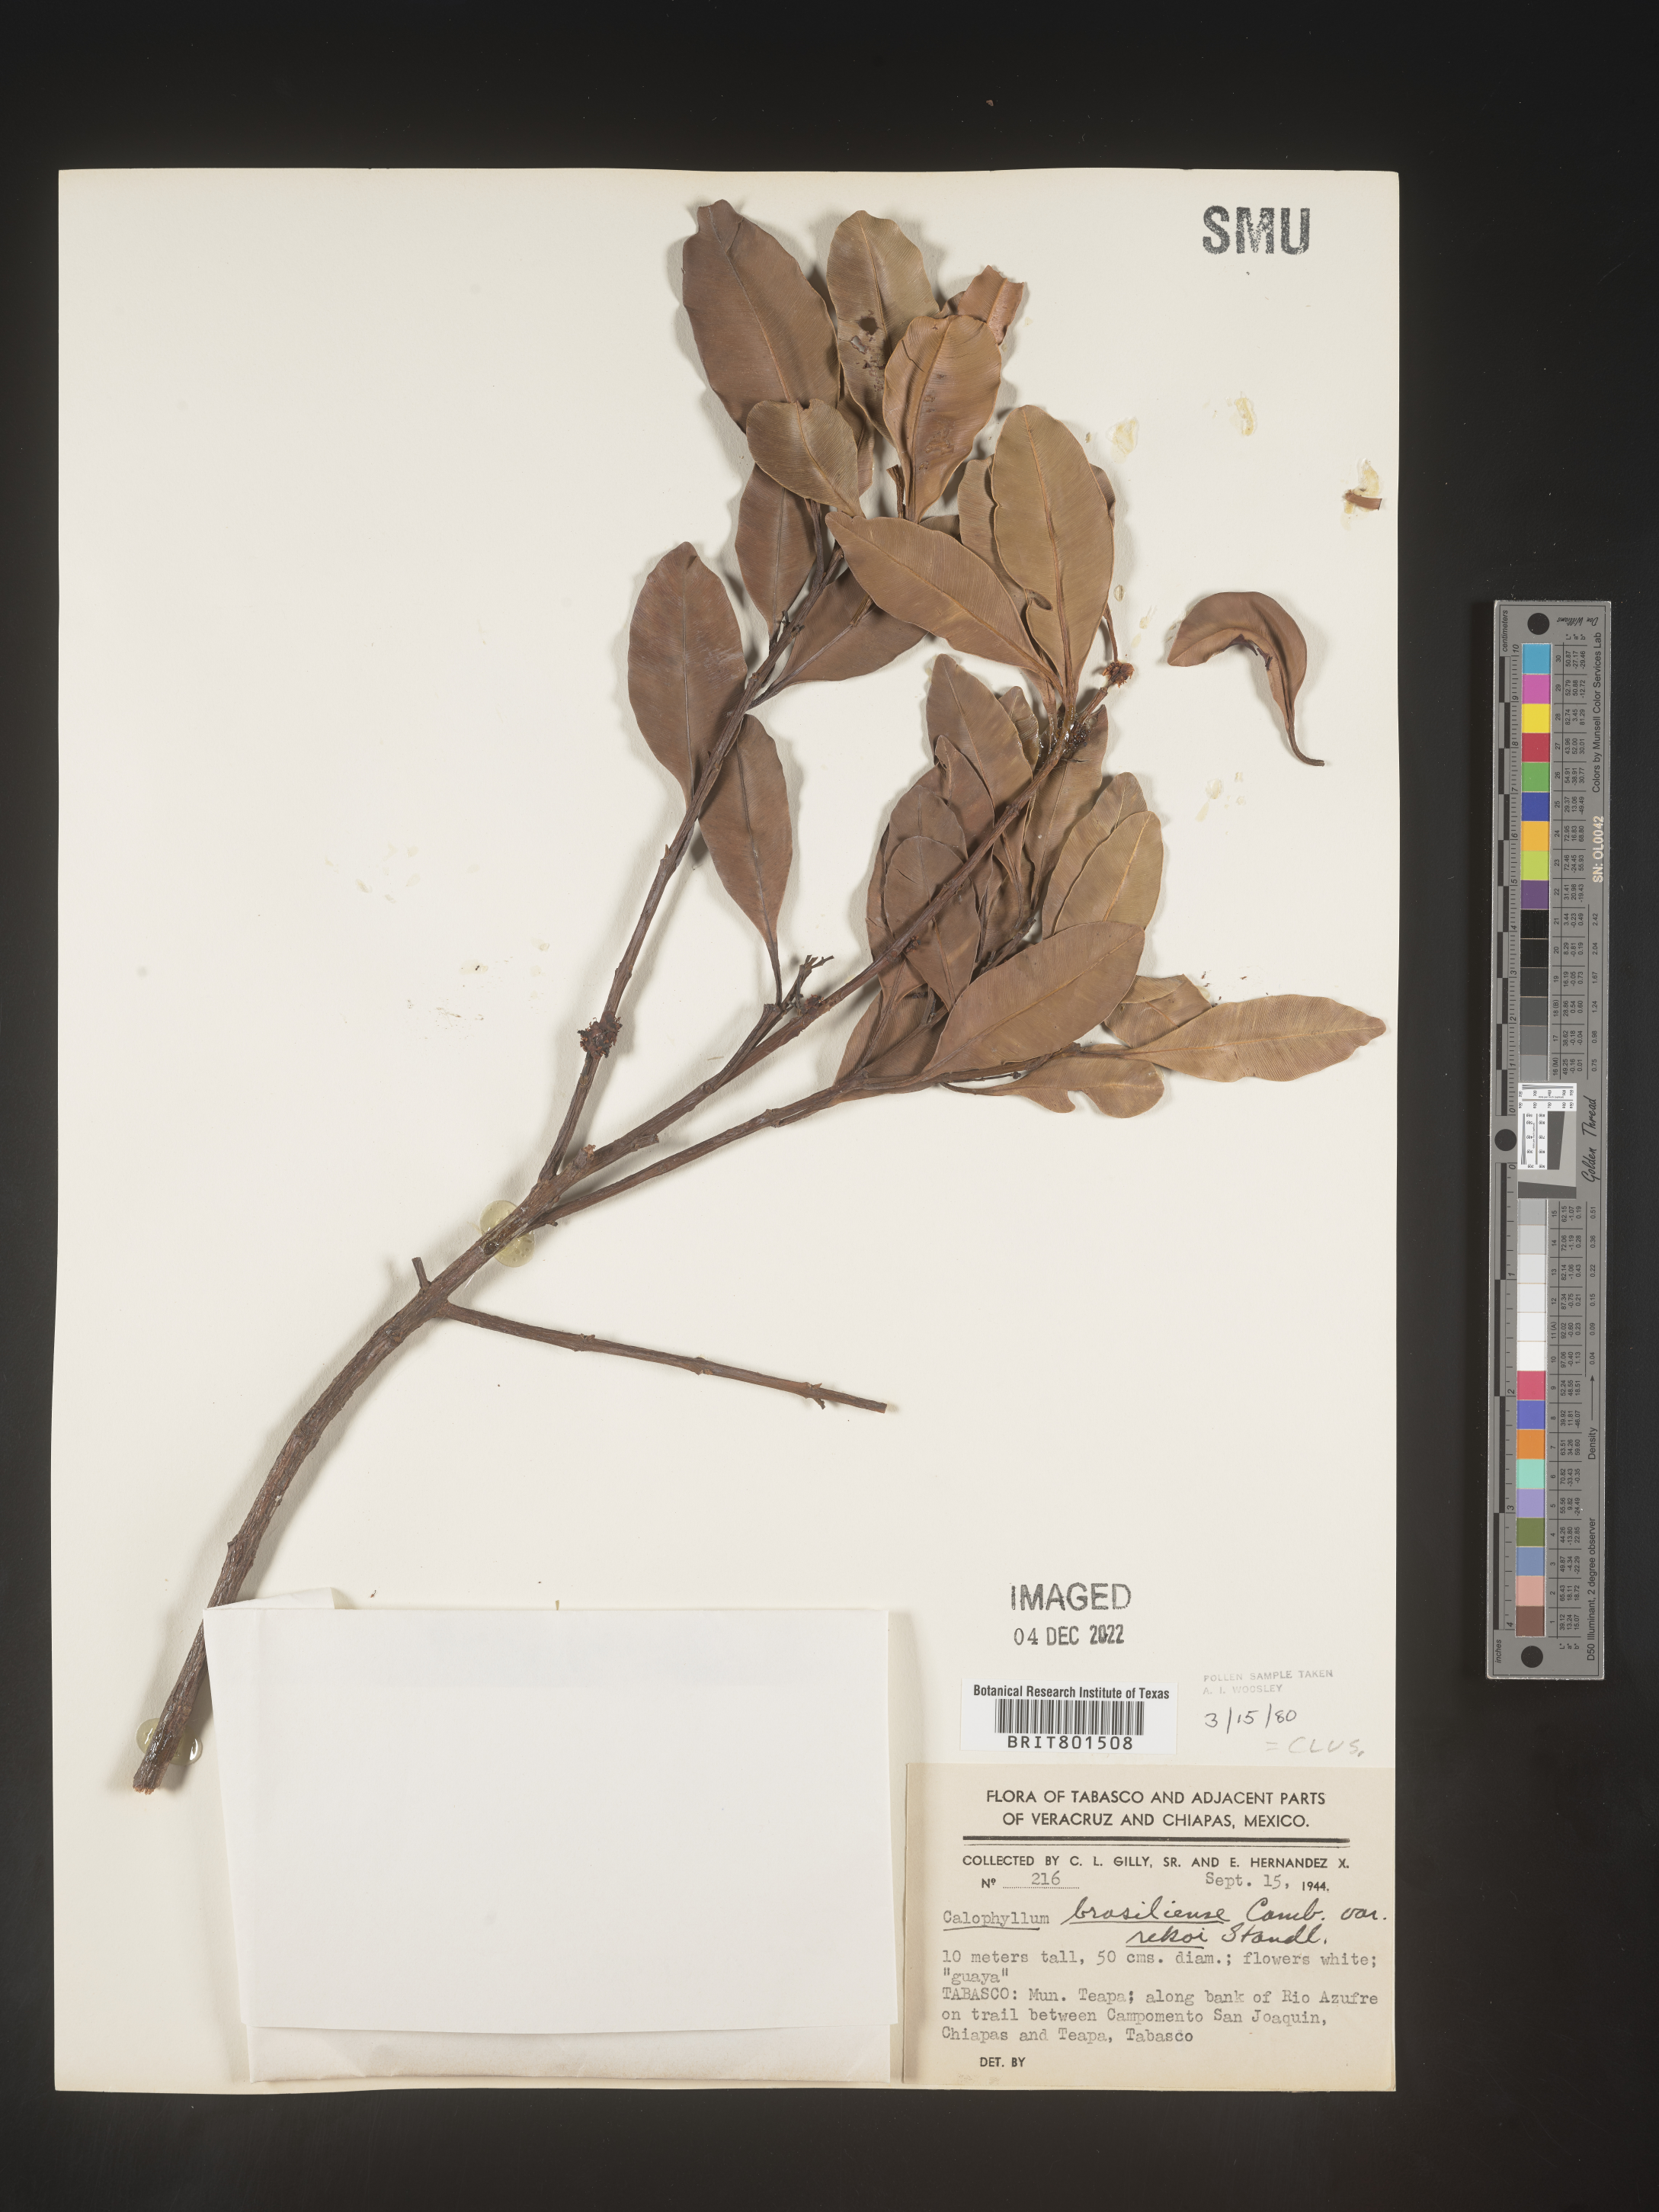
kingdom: Plantae
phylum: Tracheophyta
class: Magnoliopsida
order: Malpighiales
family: Calophyllaceae
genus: Calophyllum
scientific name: Calophyllum
